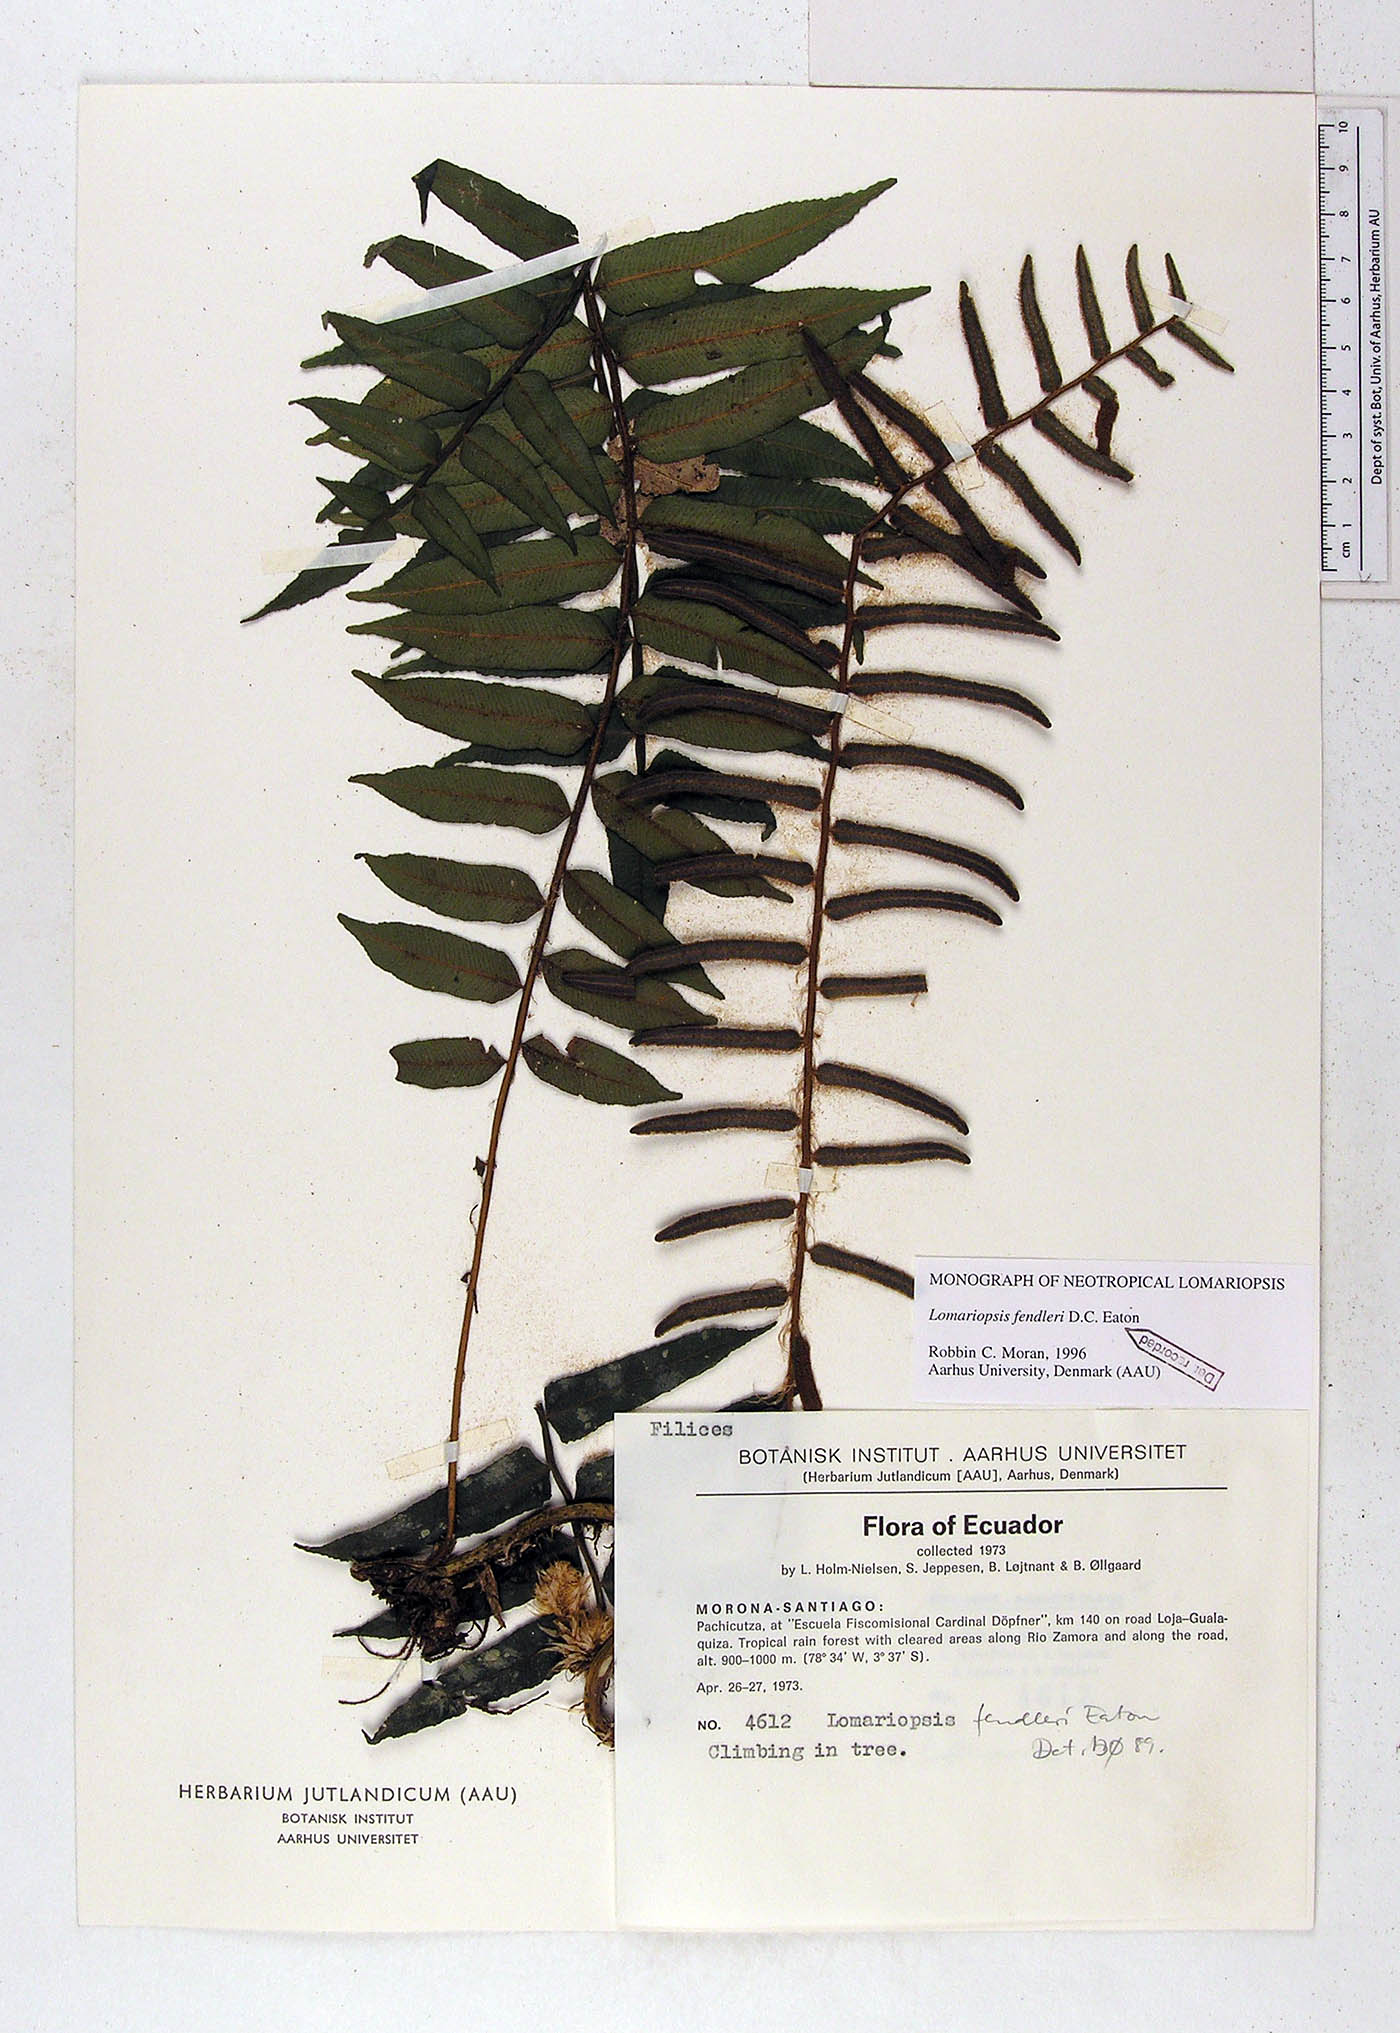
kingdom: Plantae
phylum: Tracheophyta
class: Polypodiopsida
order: Polypodiales
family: Lomariopsidaceae
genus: Lomariopsis
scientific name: Lomariopsis fendleri
